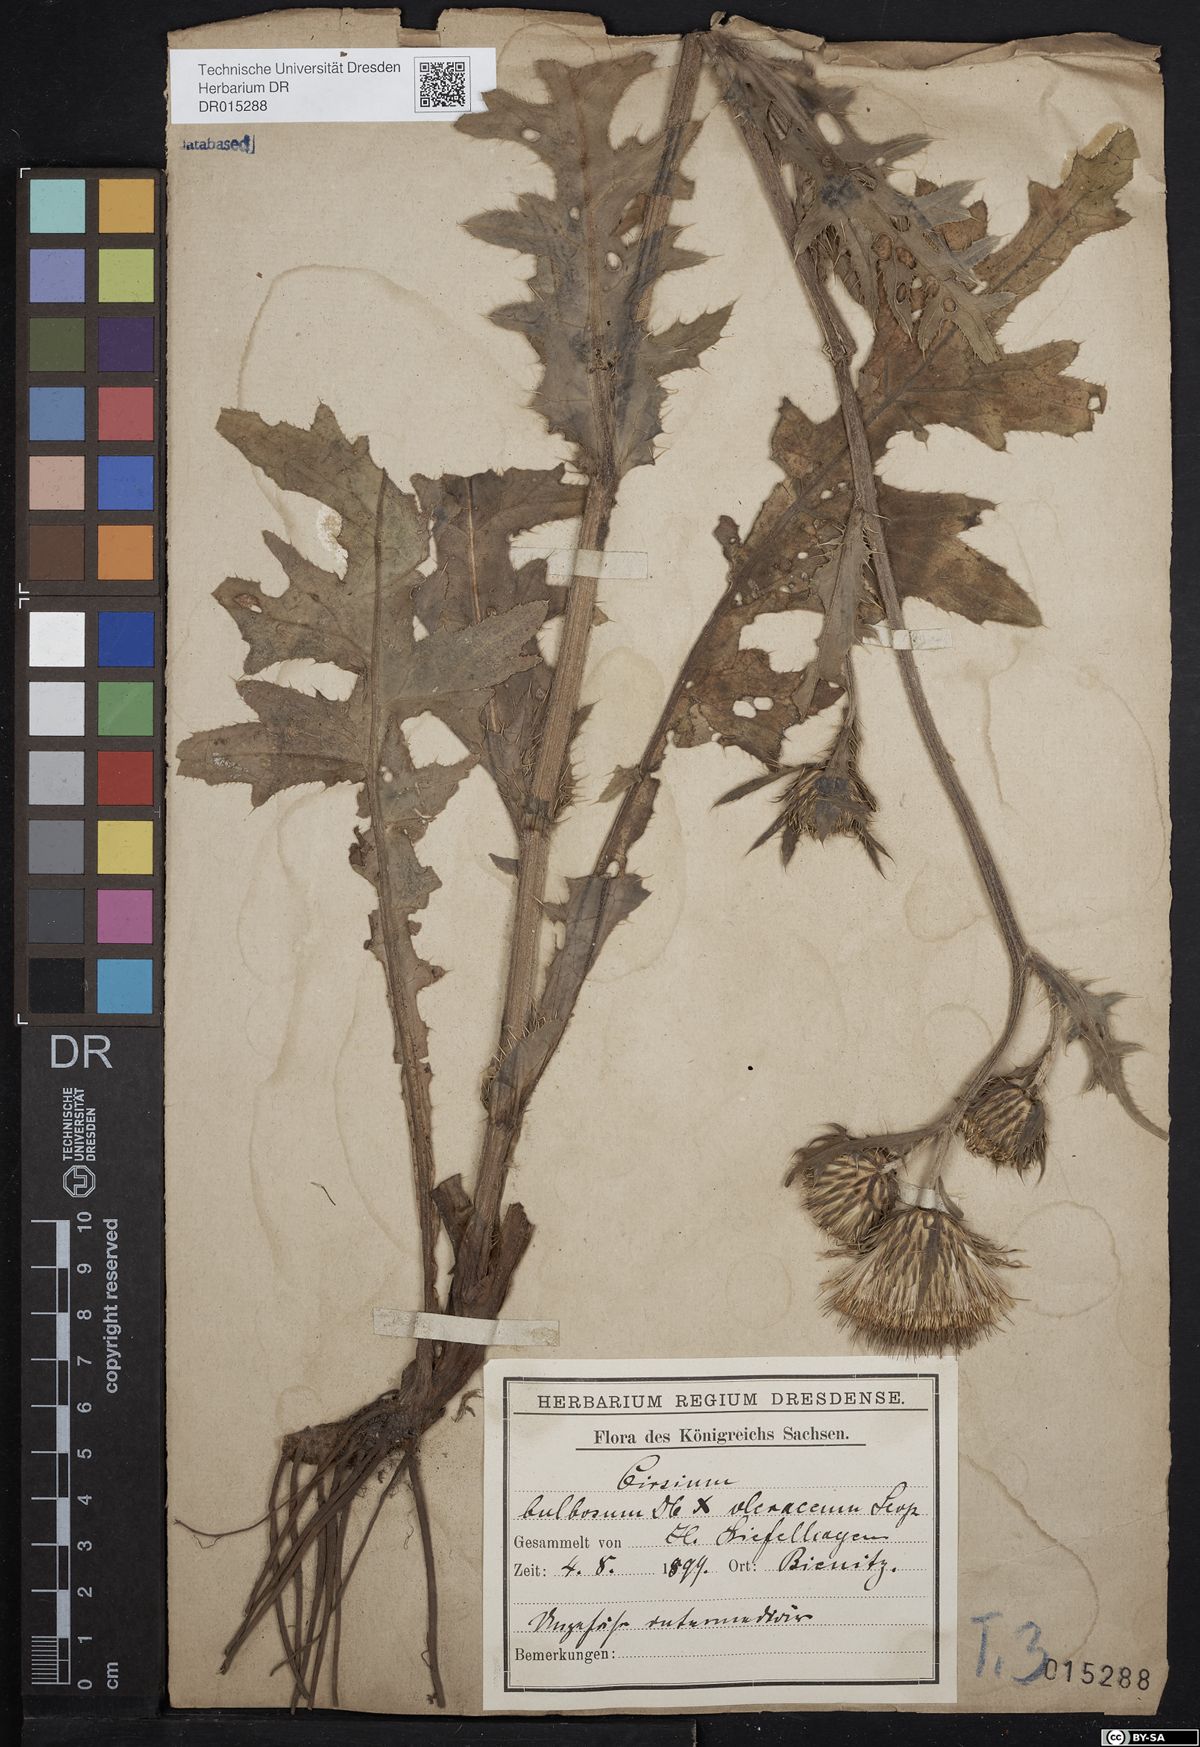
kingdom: Plantae
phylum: Tracheophyta
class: Magnoliopsida
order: Asterales
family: Asteraceae
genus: Cirsium
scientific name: Cirsium lachenalii
